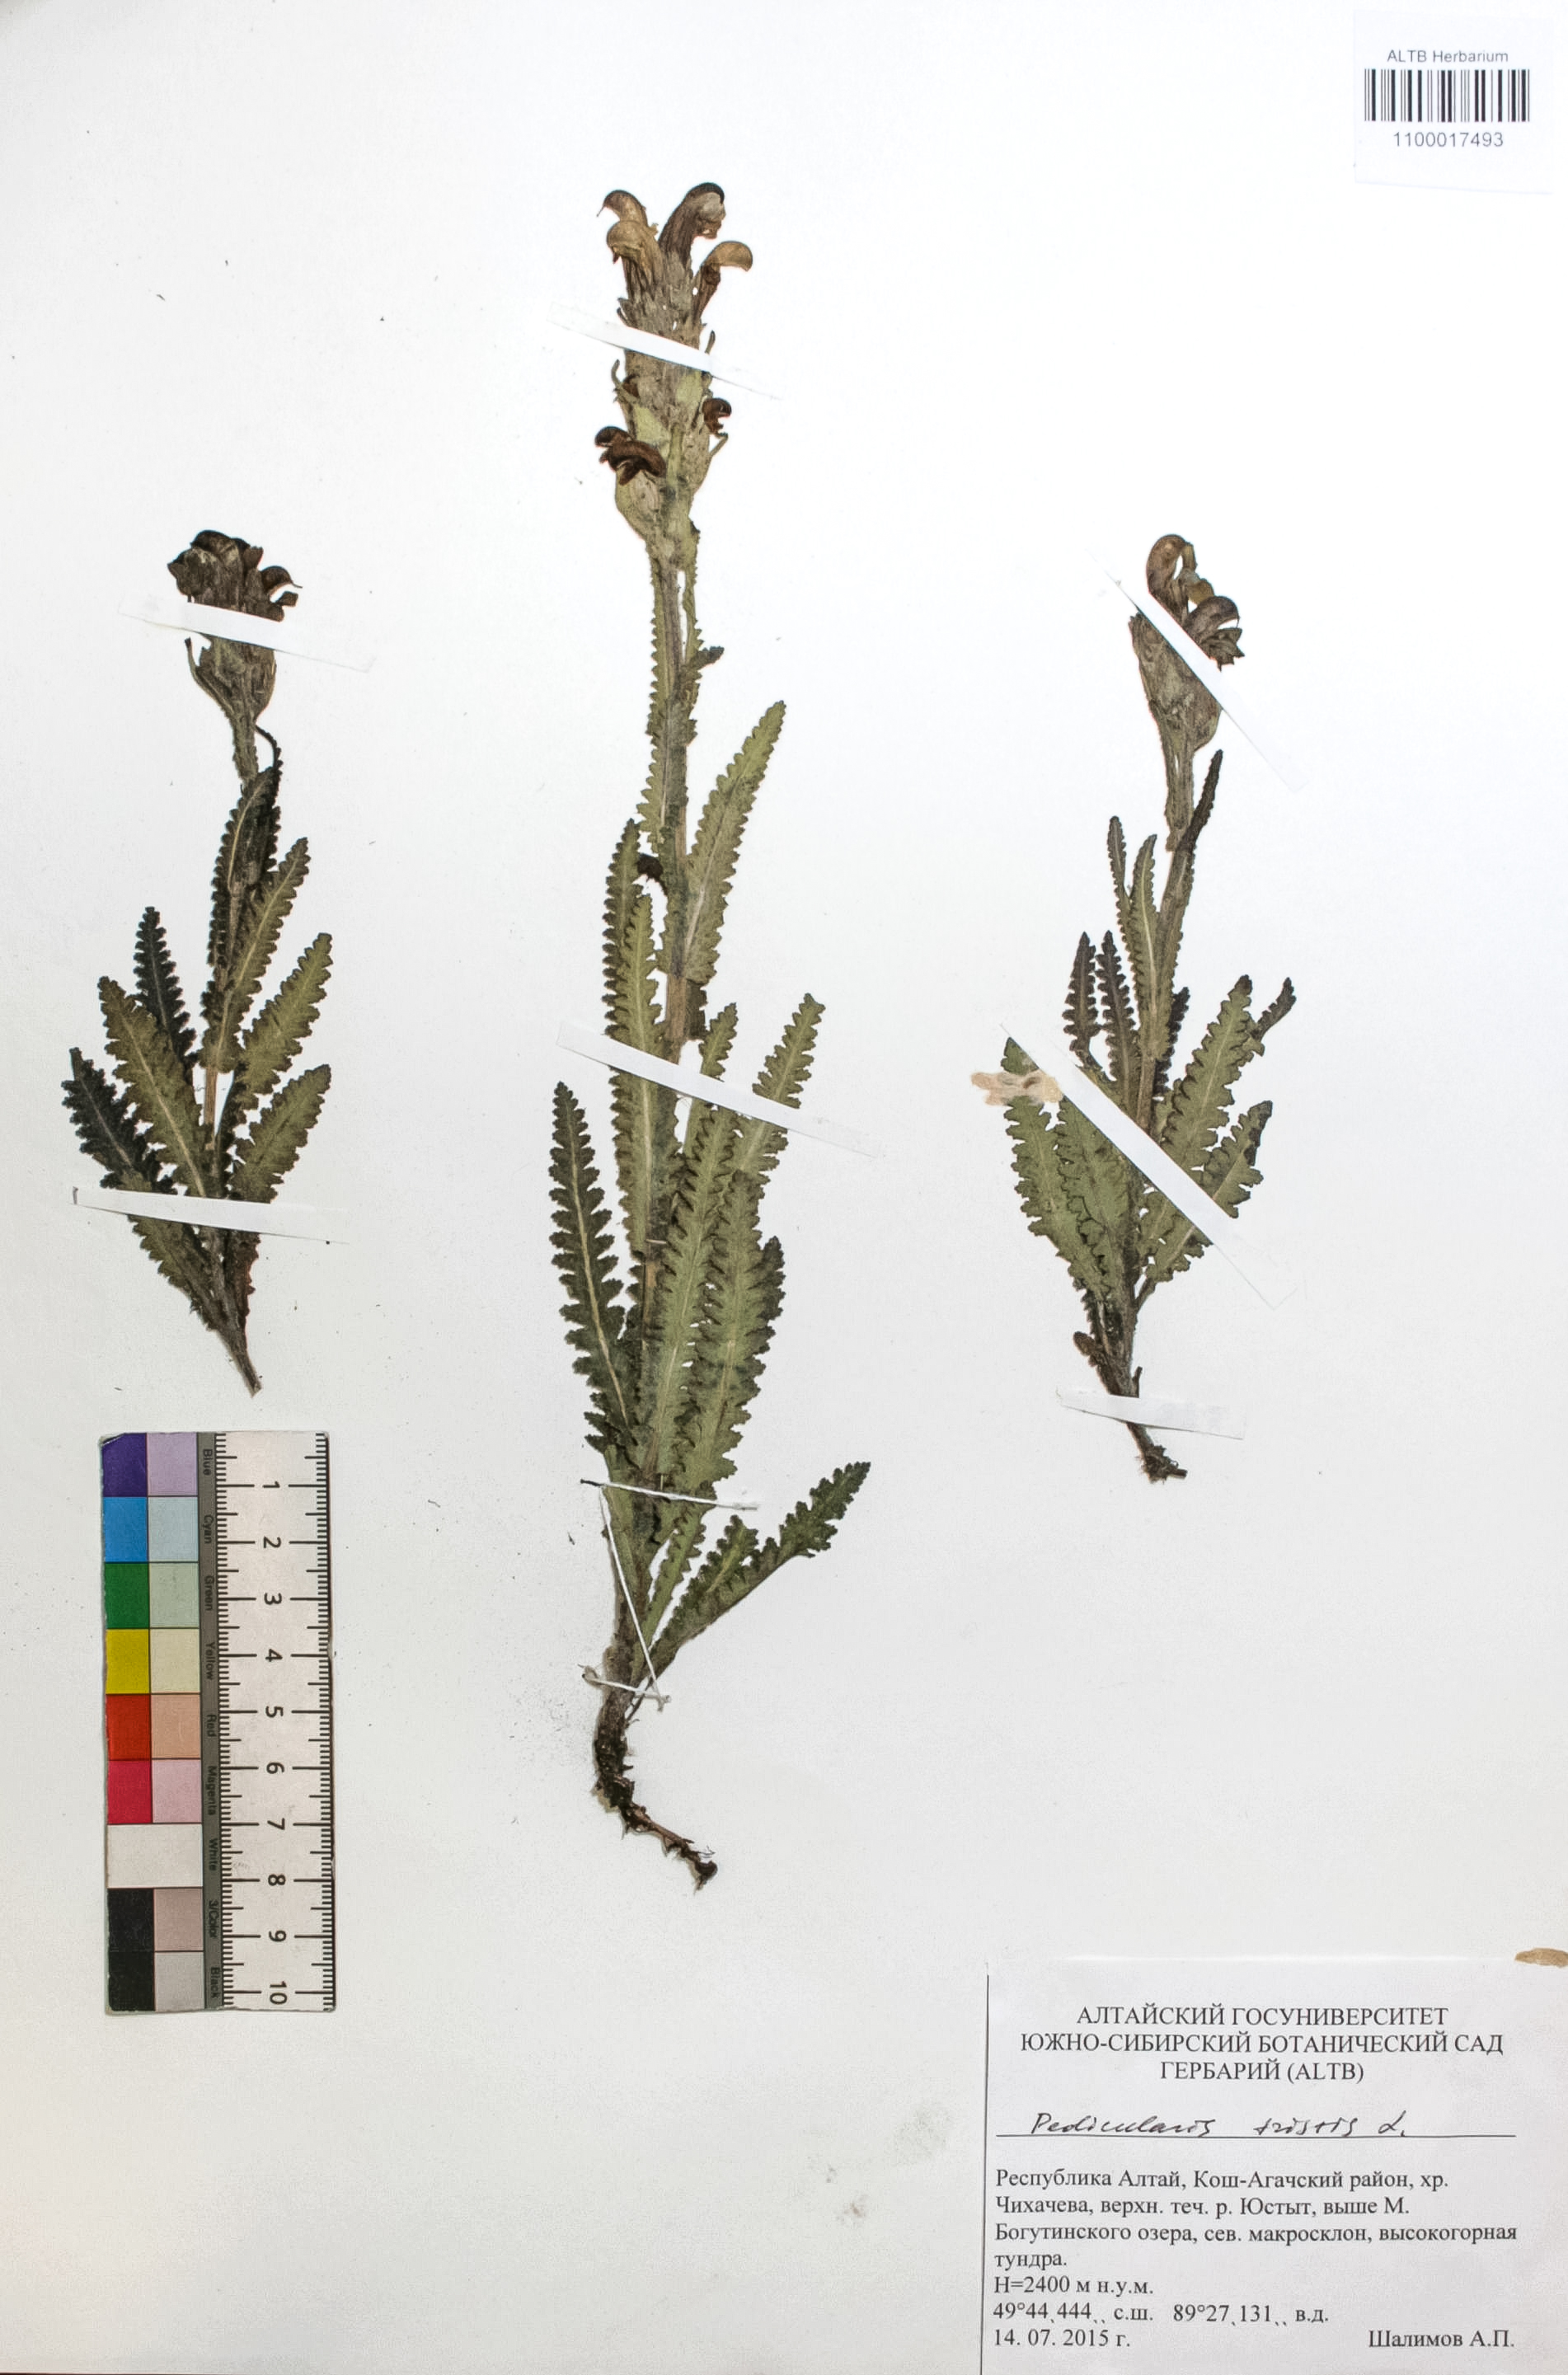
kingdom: Plantae
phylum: Tracheophyta
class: Magnoliopsida
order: Lamiales
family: Orobanchaceae
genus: Pedicularis
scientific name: Pedicularis tristis
